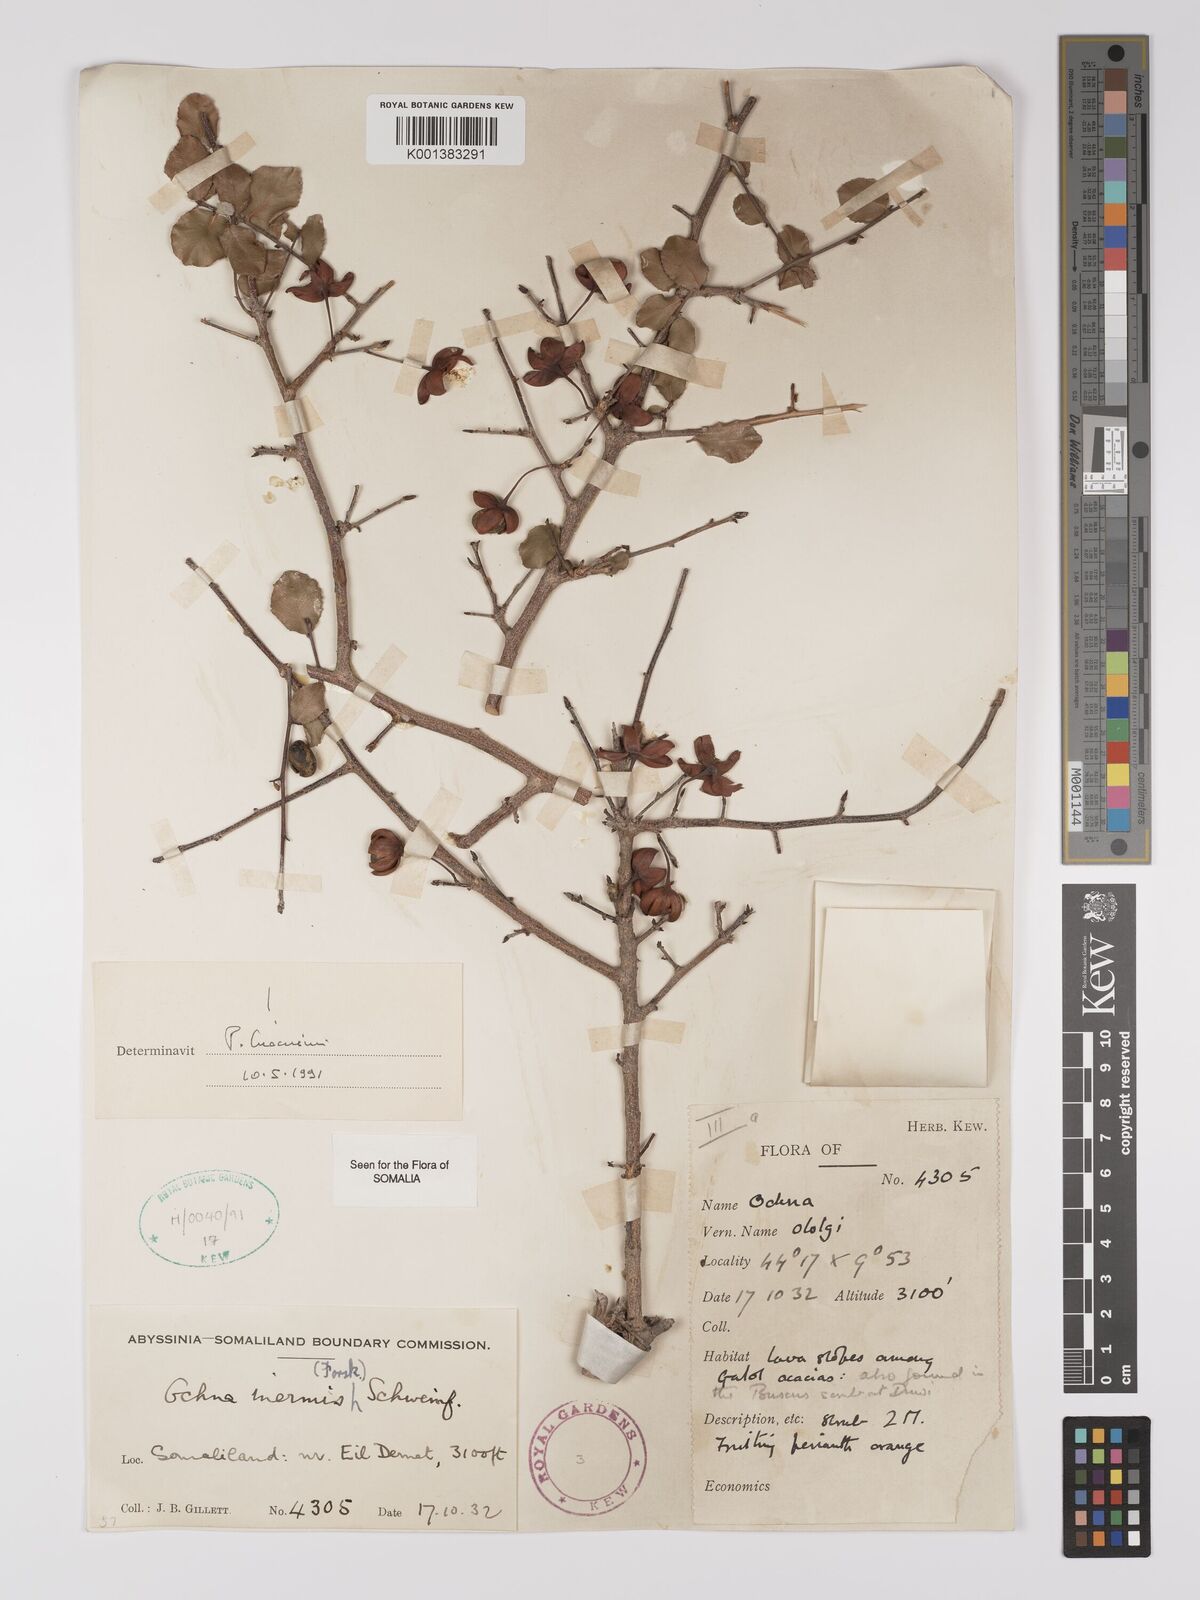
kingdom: Plantae
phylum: Tracheophyta
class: Magnoliopsida
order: Malpighiales
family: Ochnaceae
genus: Ochna
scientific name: Ochna inermis
